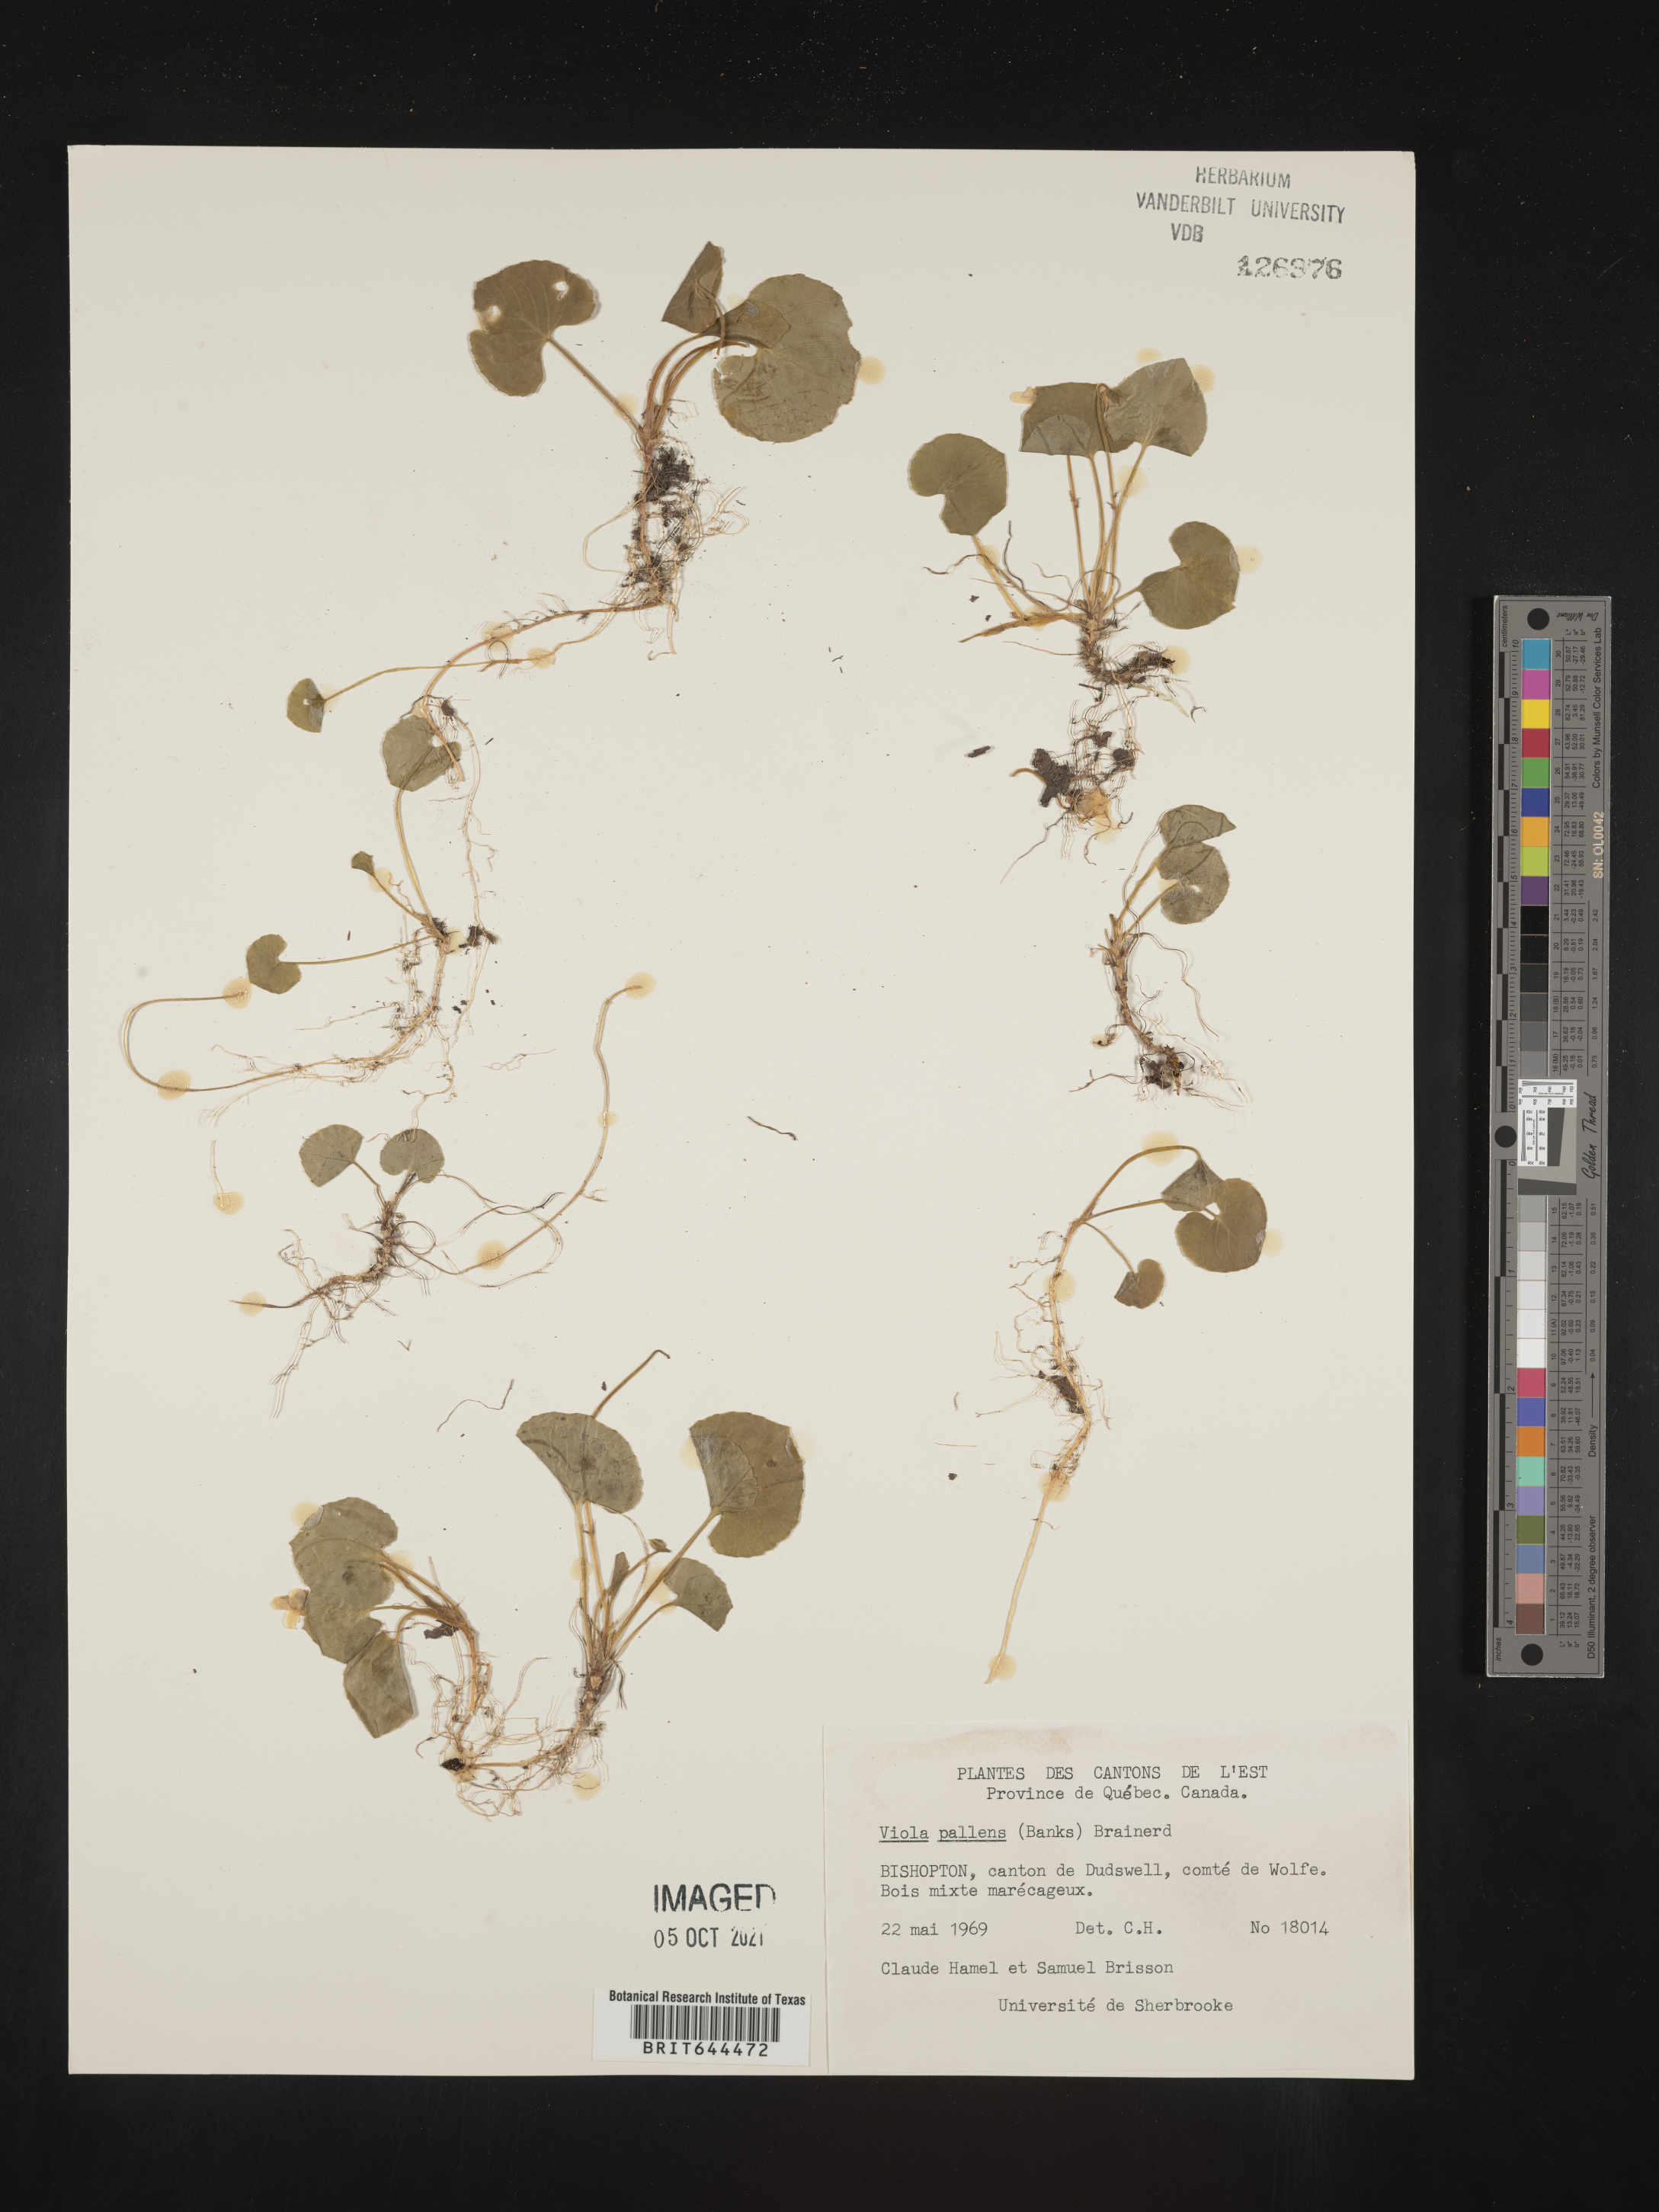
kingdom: Plantae
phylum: Tracheophyta
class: Magnoliopsida
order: Malpighiales
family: Violaceae
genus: Viola
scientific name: Viola
